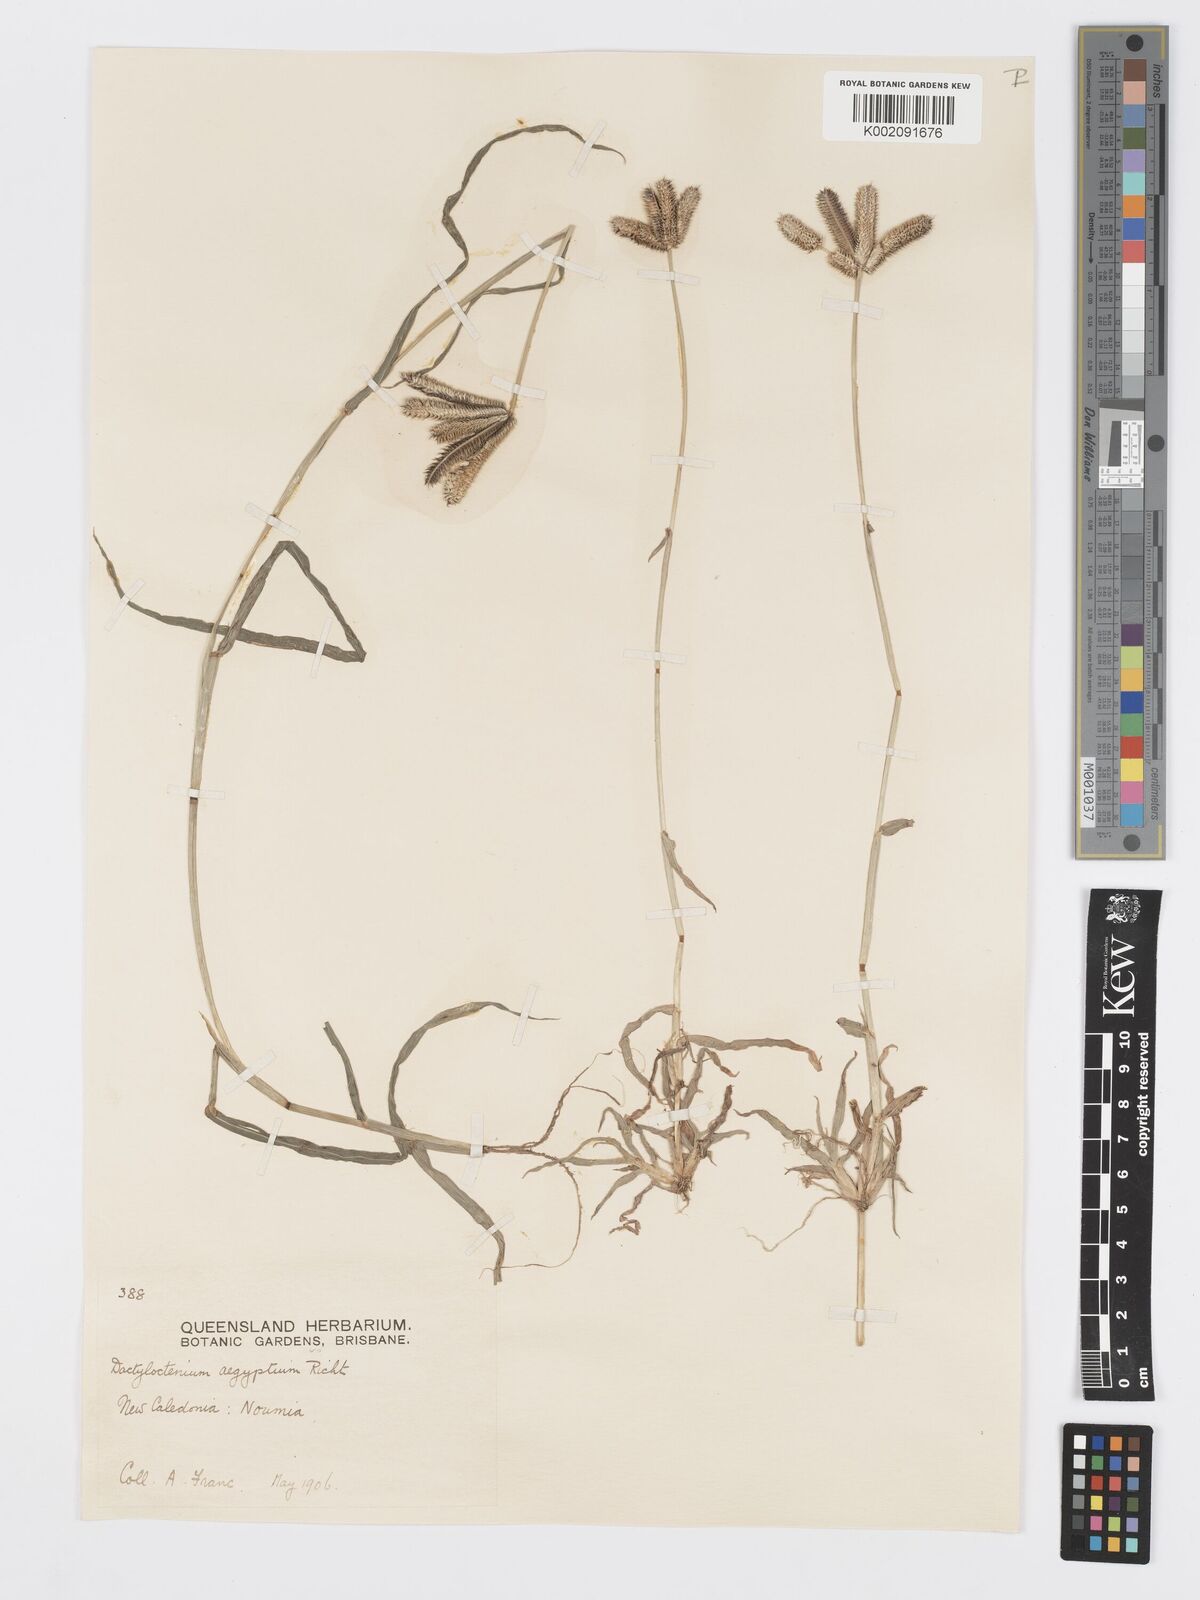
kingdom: Plantae
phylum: Tracheophyta
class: Liliopsida
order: Poales
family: Poaceae
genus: Dactyloctenium
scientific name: Dactyloctenium aegyptium
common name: Egyptian grass
